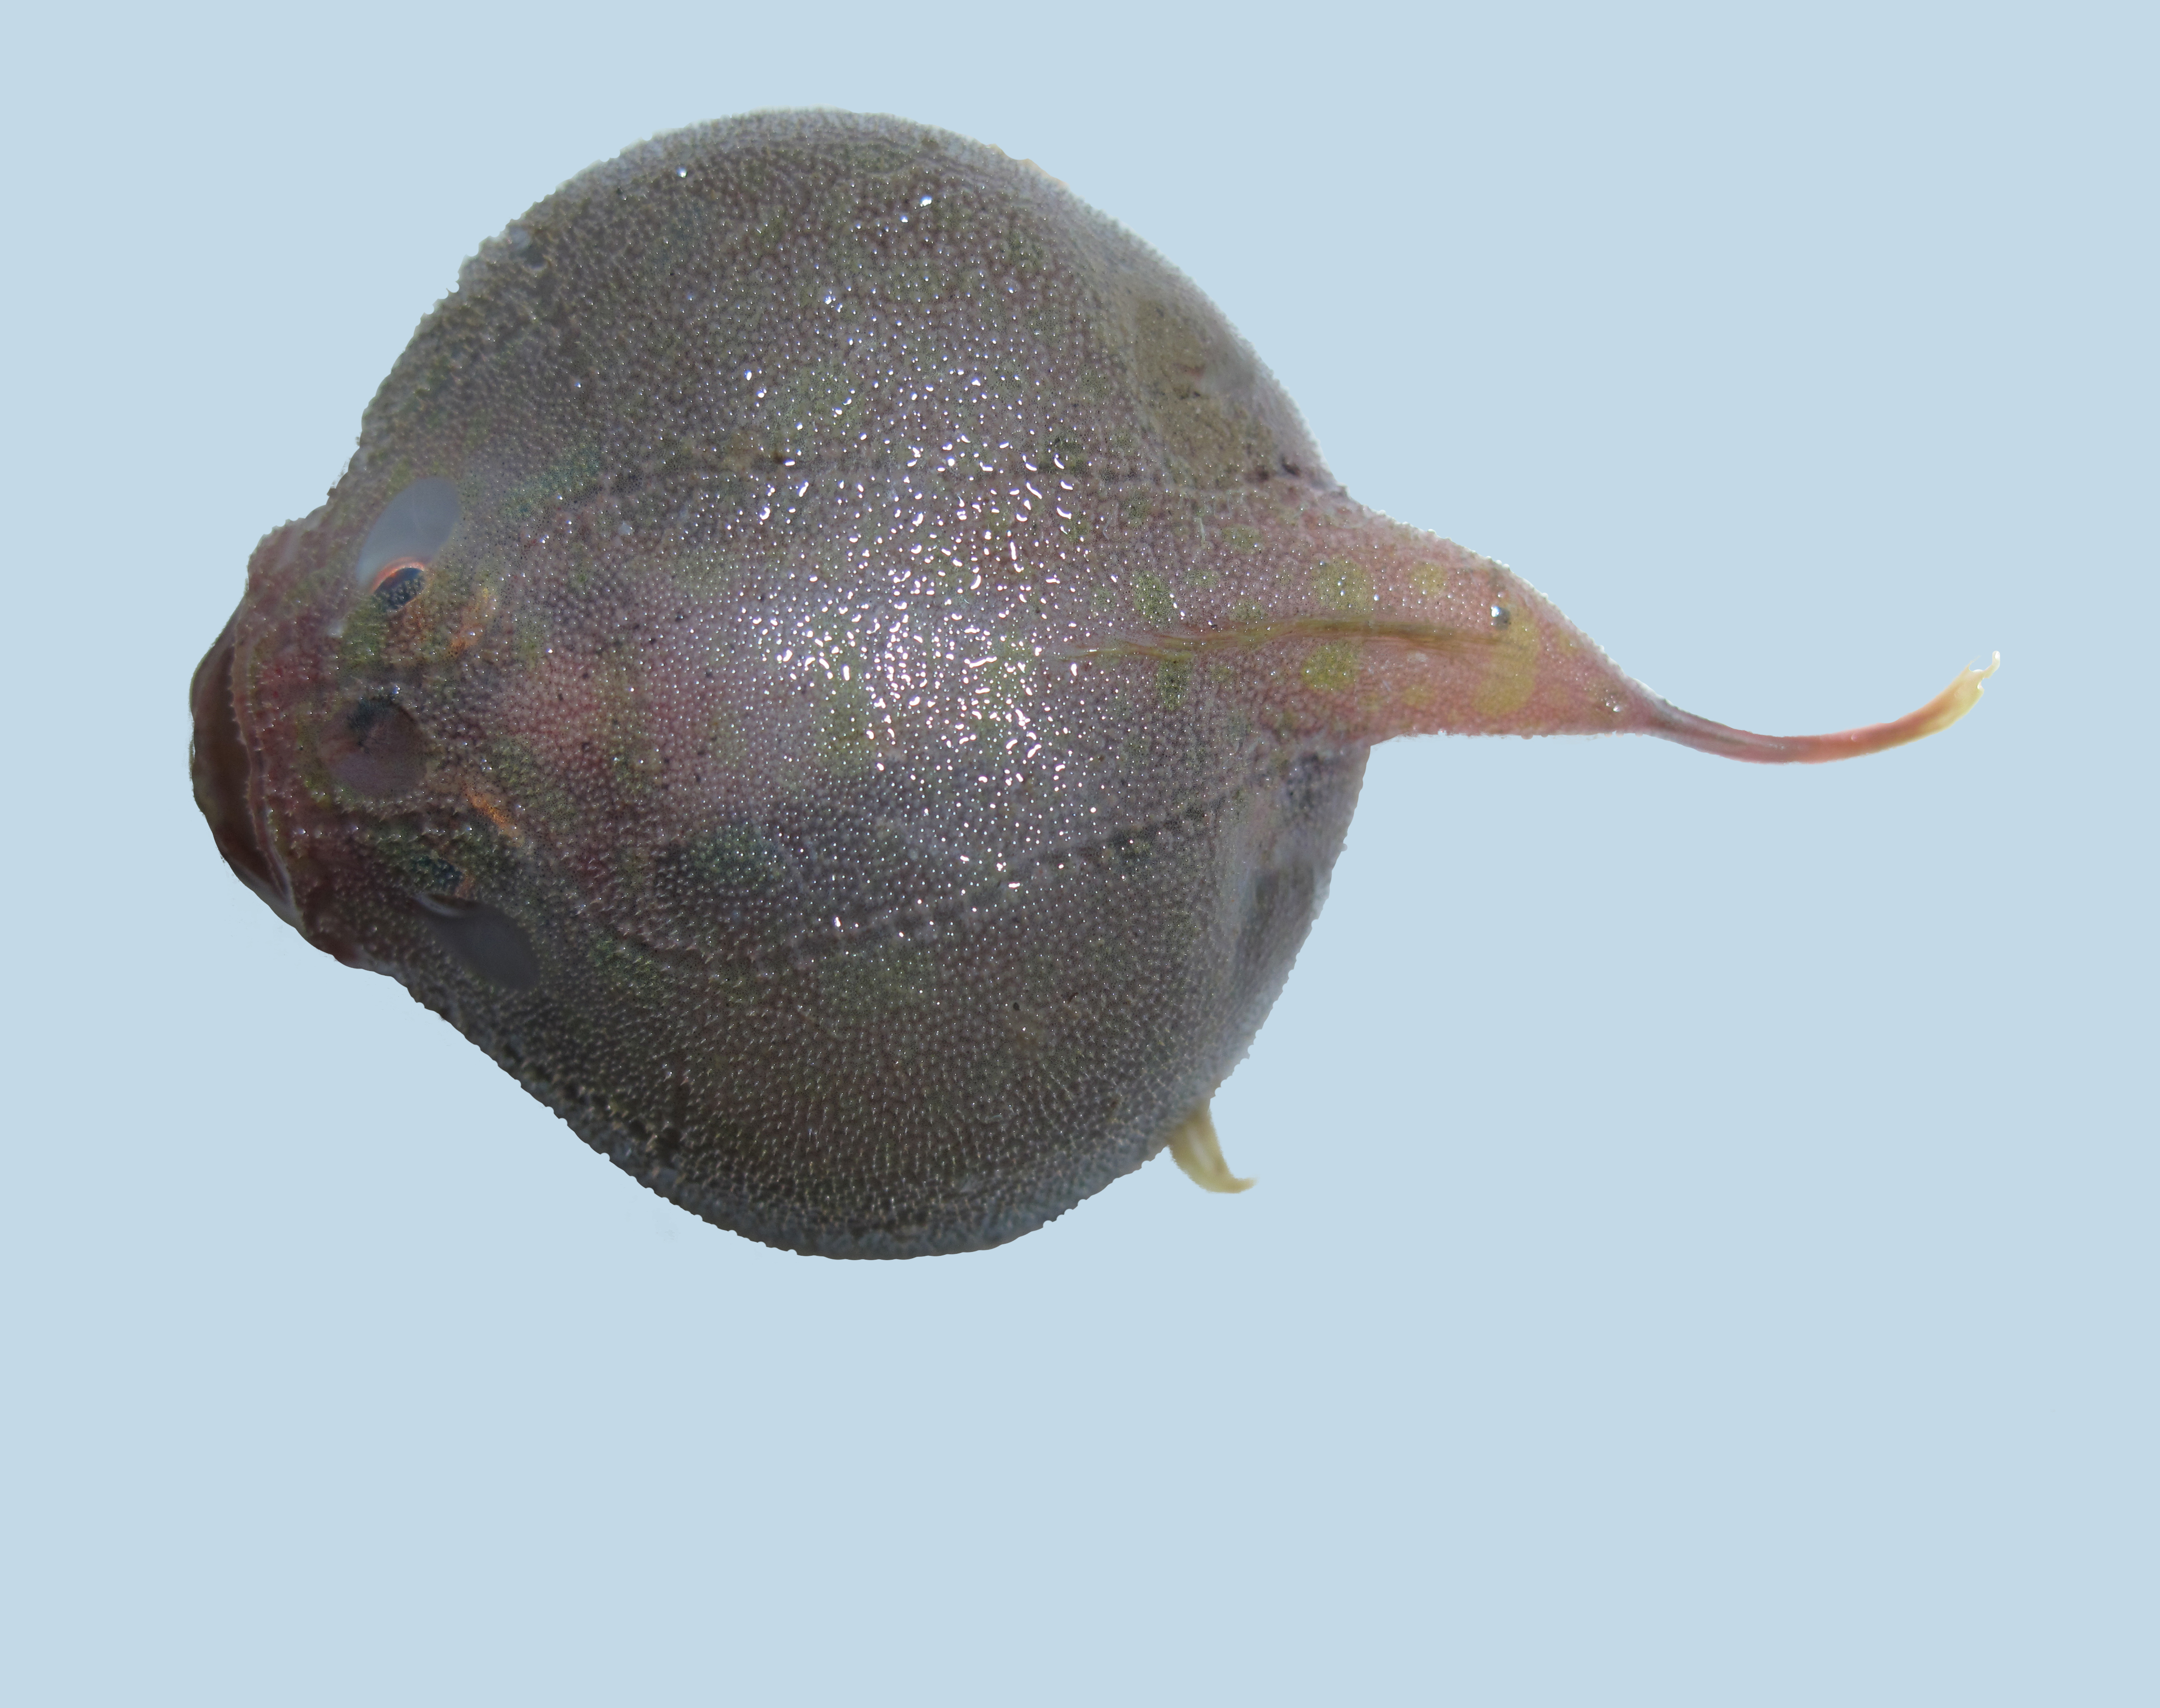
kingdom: Animalia
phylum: Chordata
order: Lophiiformes
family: Chaunacidae
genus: Chaunax
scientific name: Chaunax fimbriatus
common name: Tassled coffinfish
